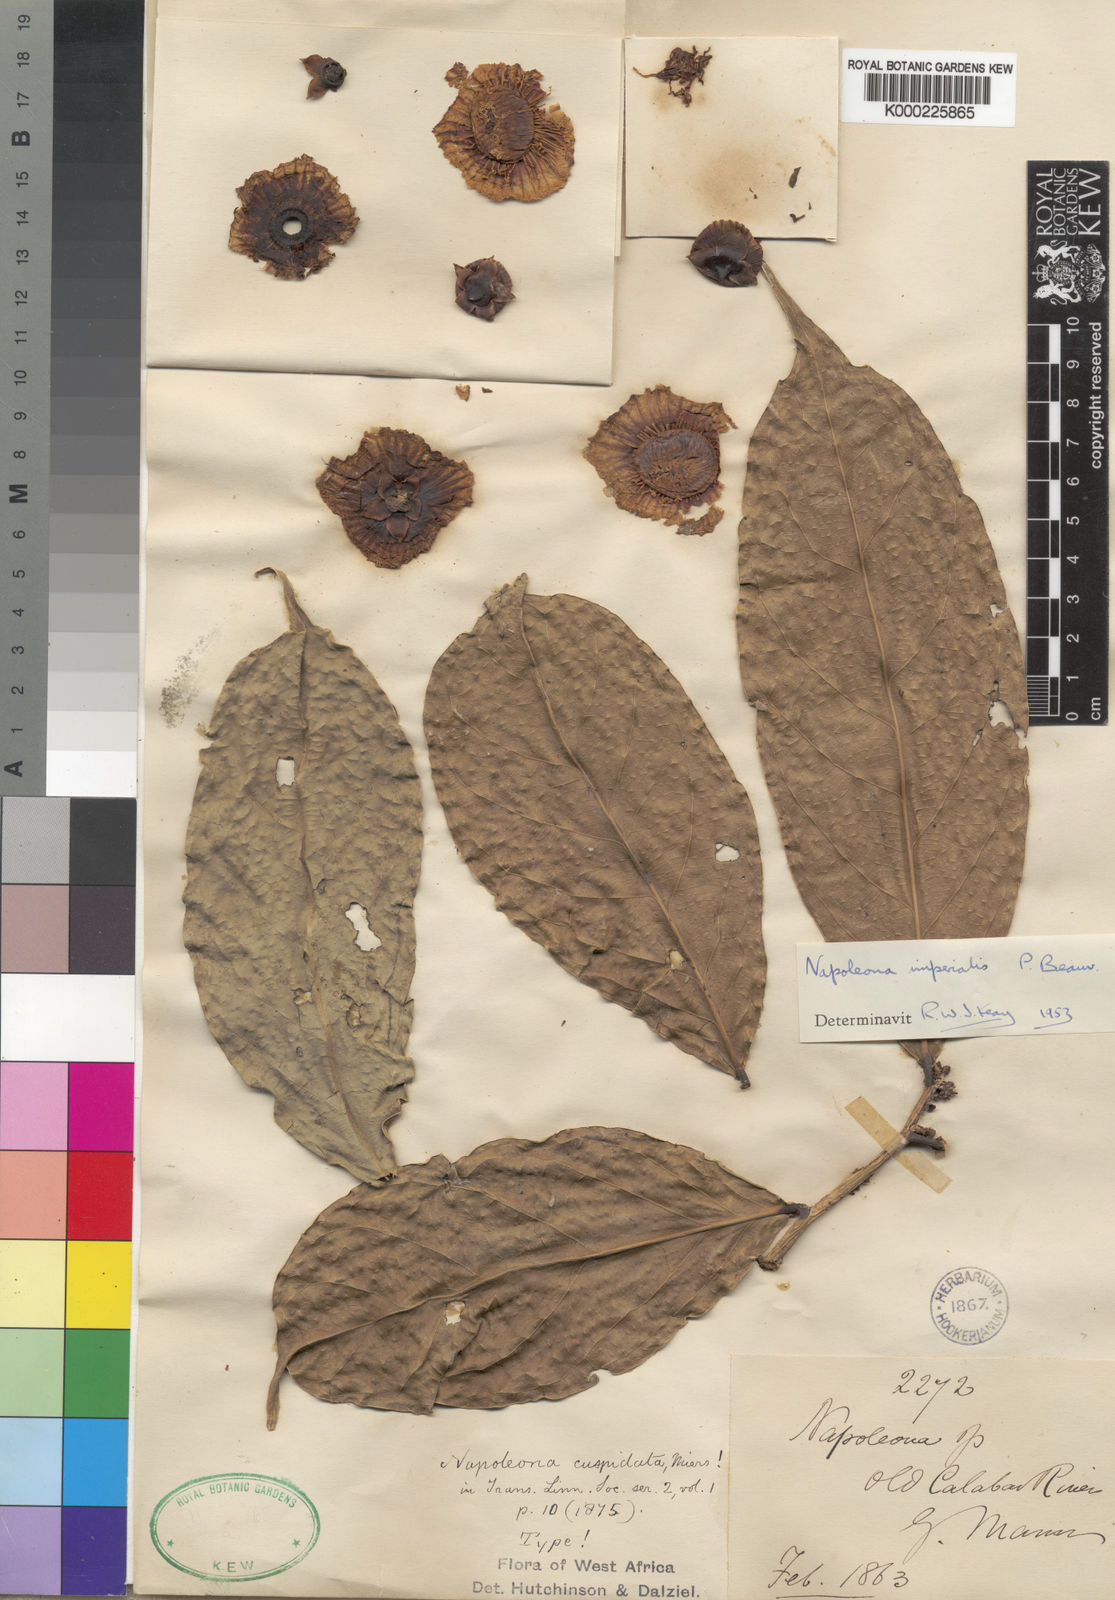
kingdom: Plantae
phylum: Tracheophyta
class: Magnoliopsida
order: Ericales
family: Lecythidaceae
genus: Napoleonaea
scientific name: Napoleonaea imperialis
